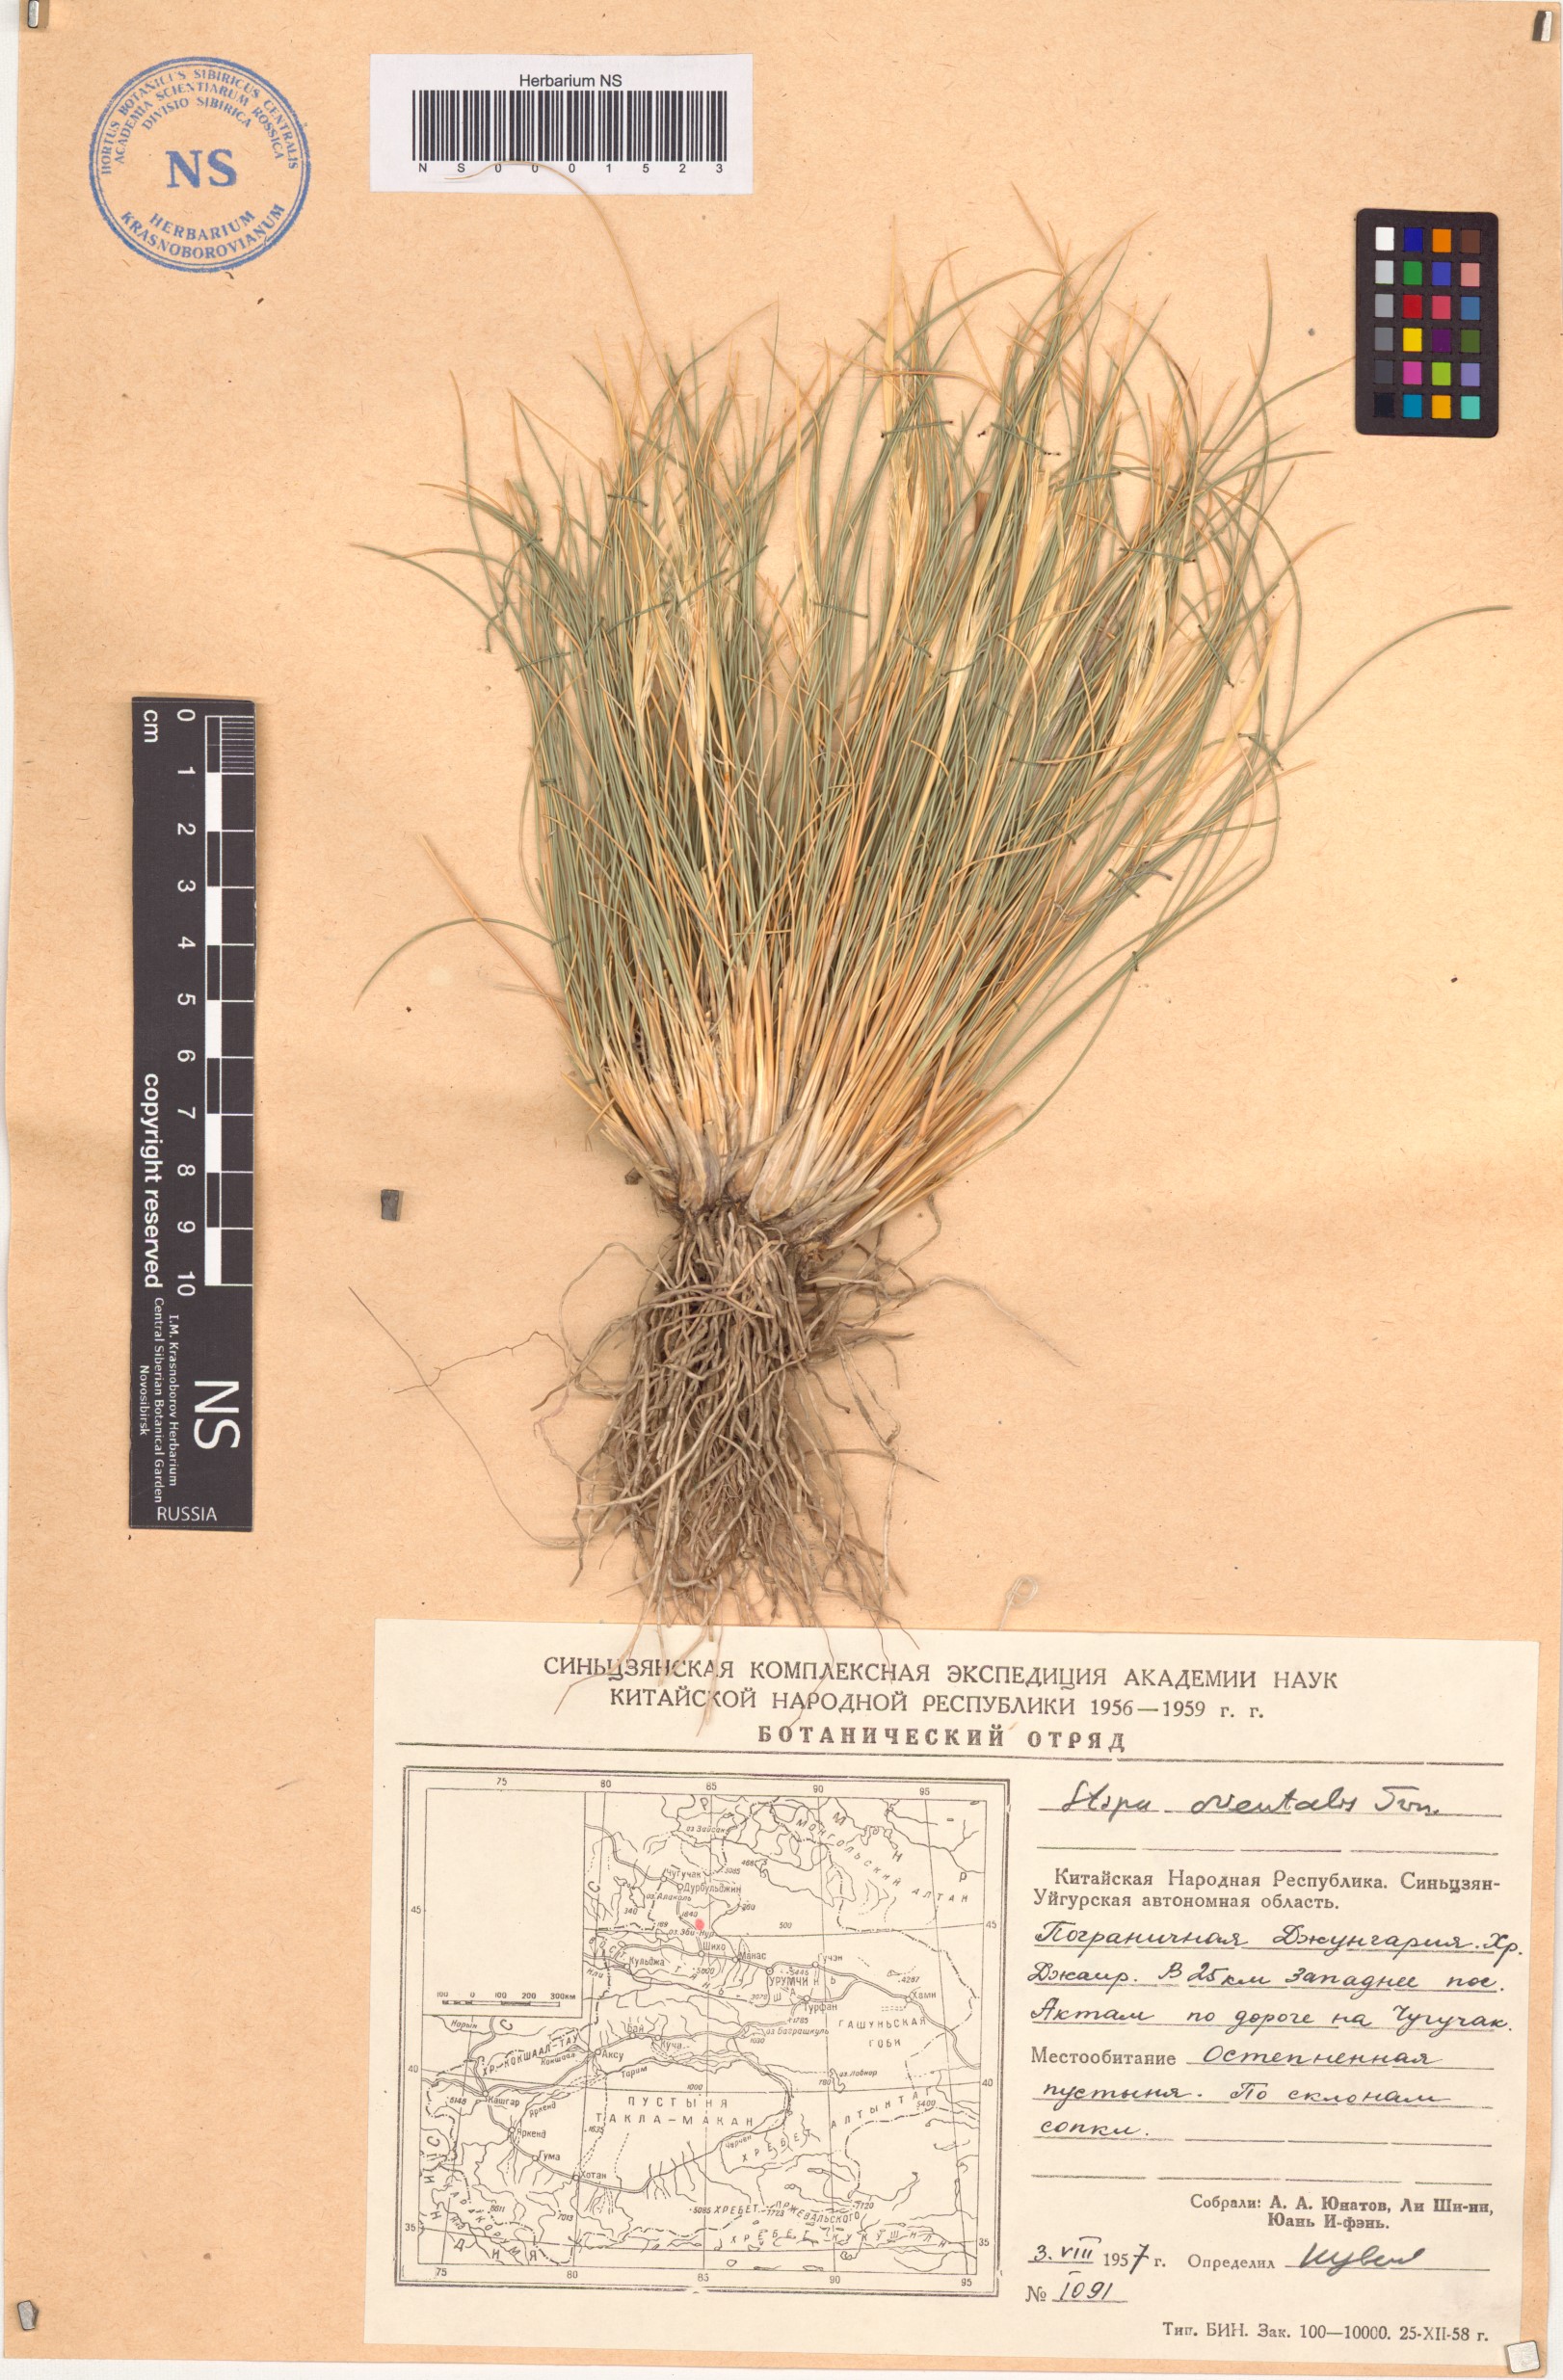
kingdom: Plantae
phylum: Tracheophyta
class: Liliopsida
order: Poales
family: Poaceae
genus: Stipa
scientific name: Stipa orientalis
